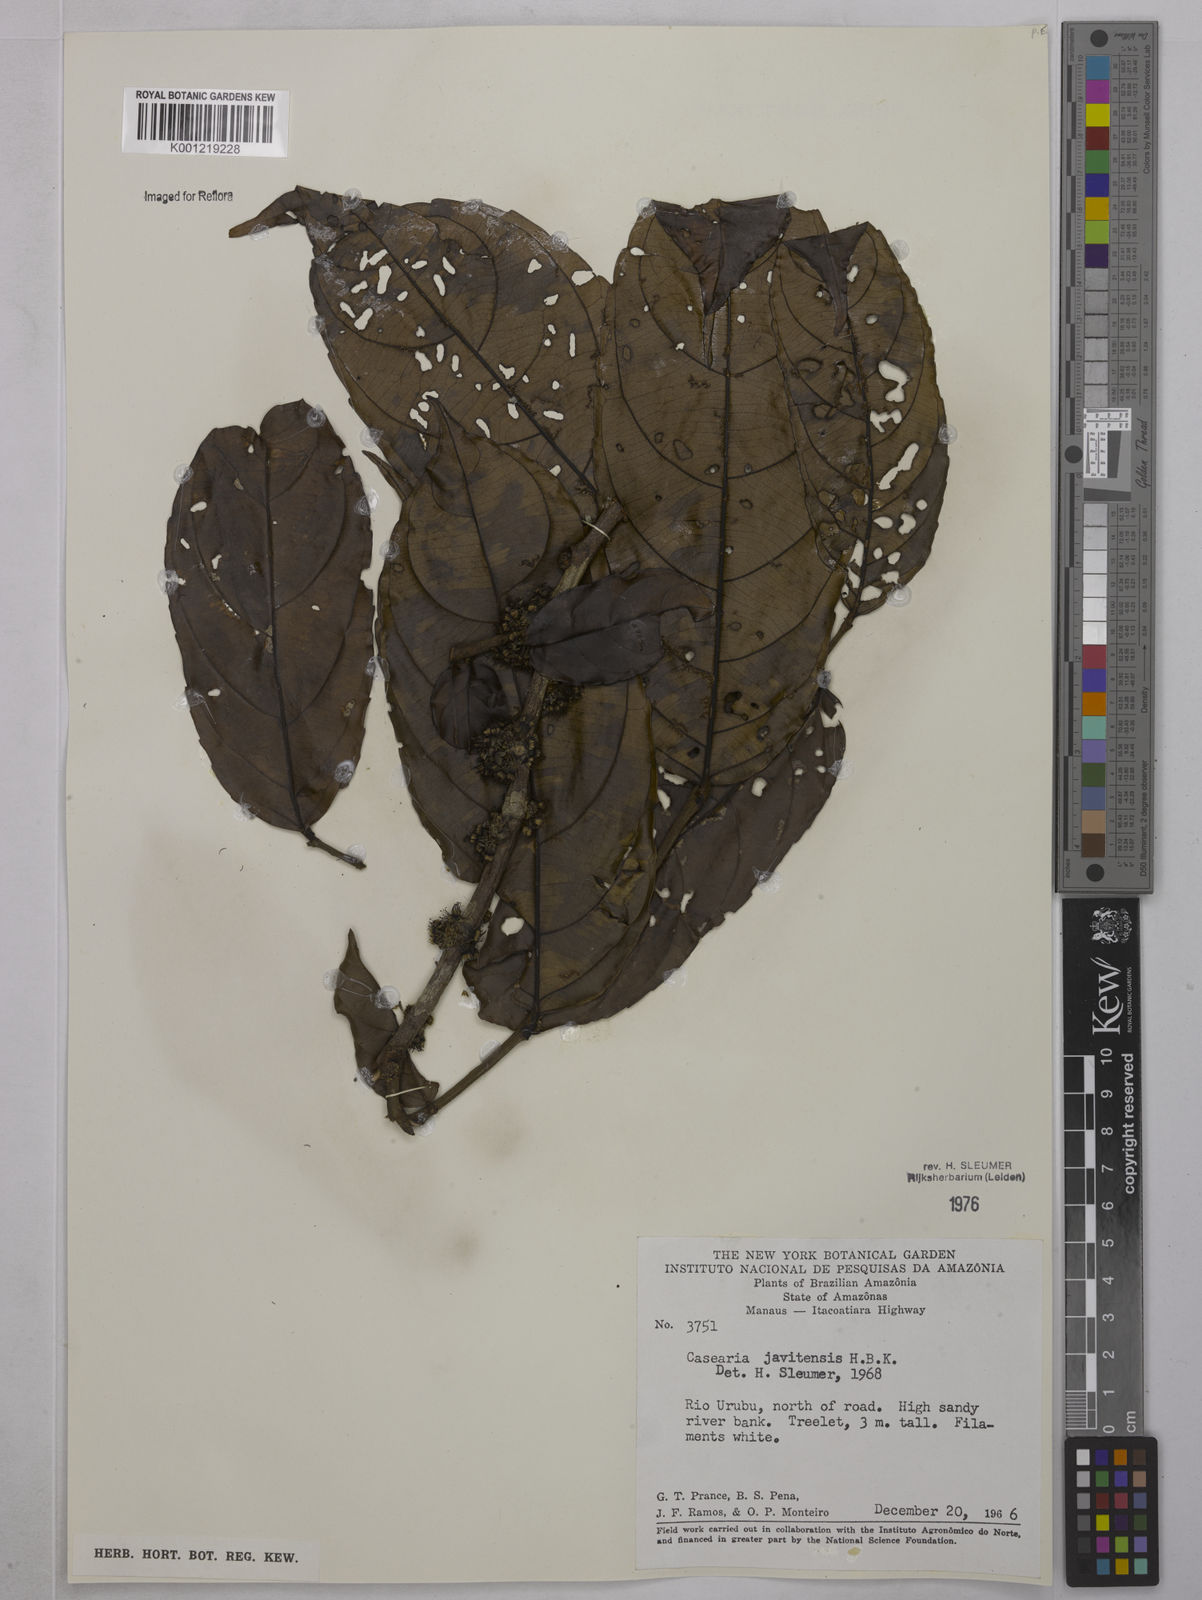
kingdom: Plantae
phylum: Tracheophyta
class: Magnoliopsida
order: Malpighiales
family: Salicaceae
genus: Piparea
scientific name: Piparea multiflora
